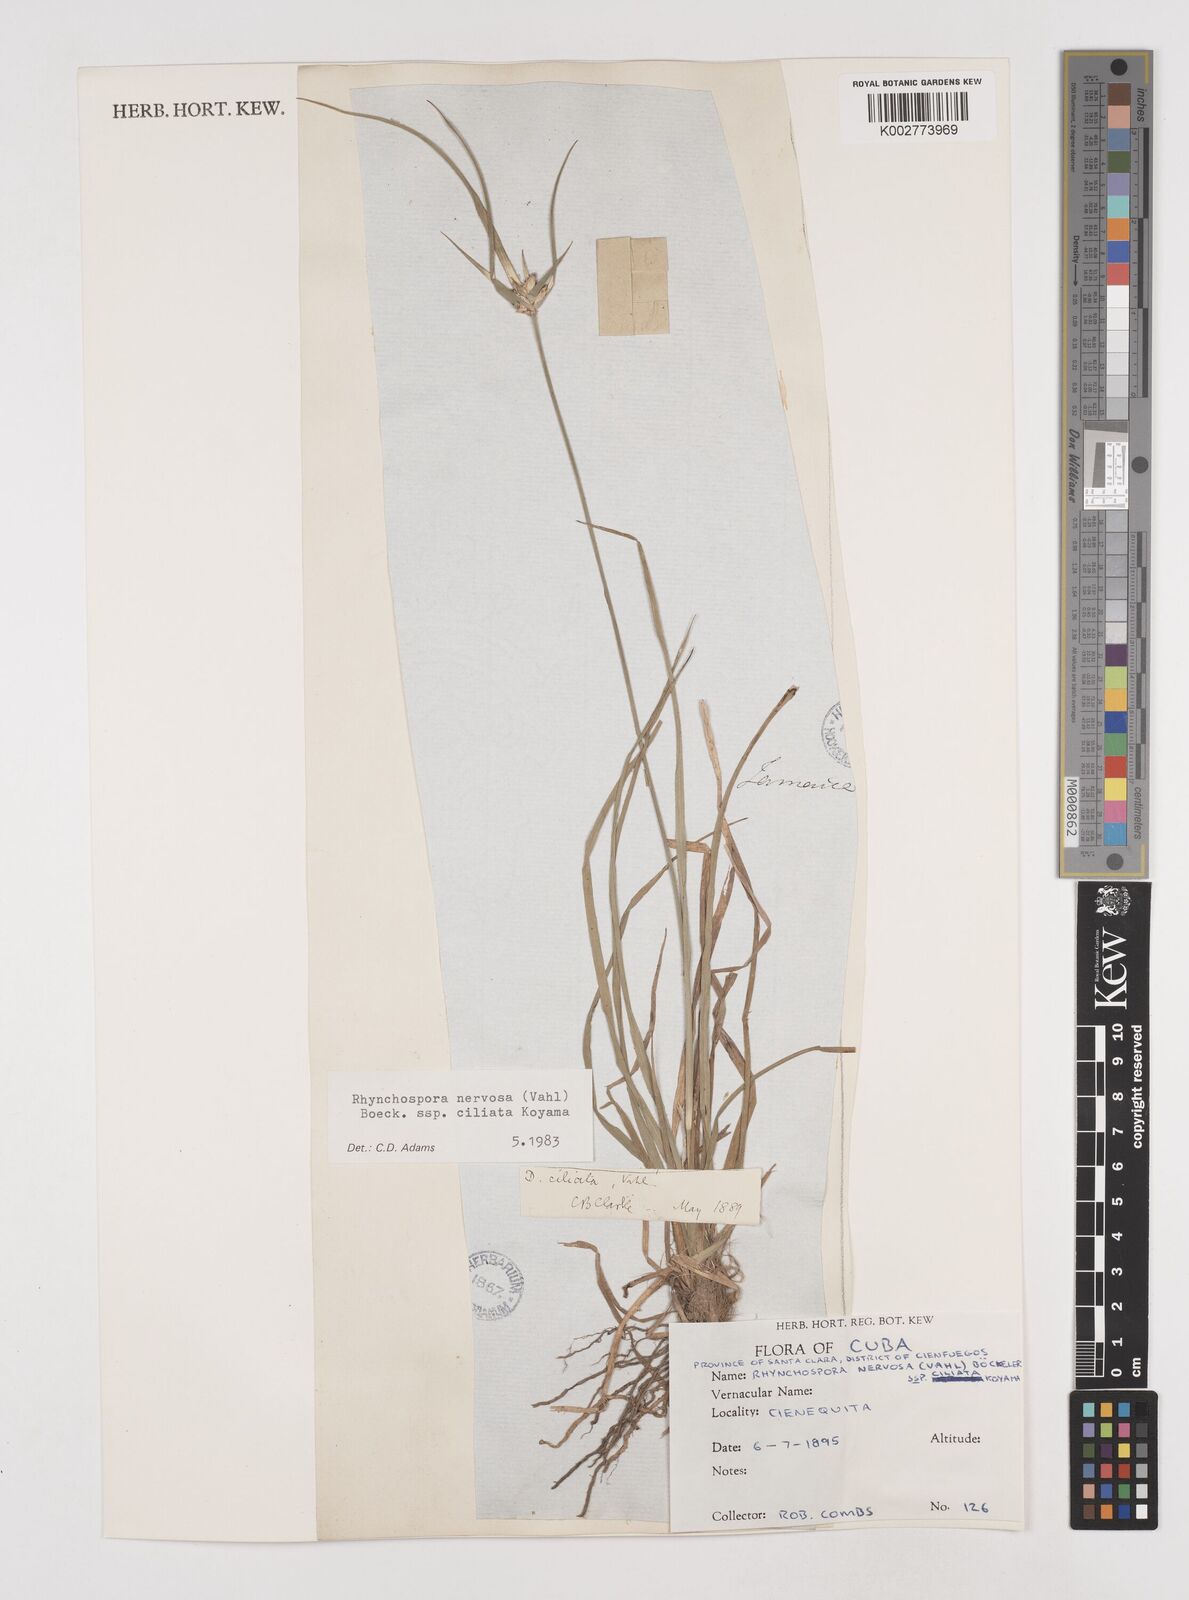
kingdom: Plantae
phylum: Tracheophyta
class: Liliopsida
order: Poales
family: Cyperaceae
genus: Rhynchospora
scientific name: Rhynchospora pura
